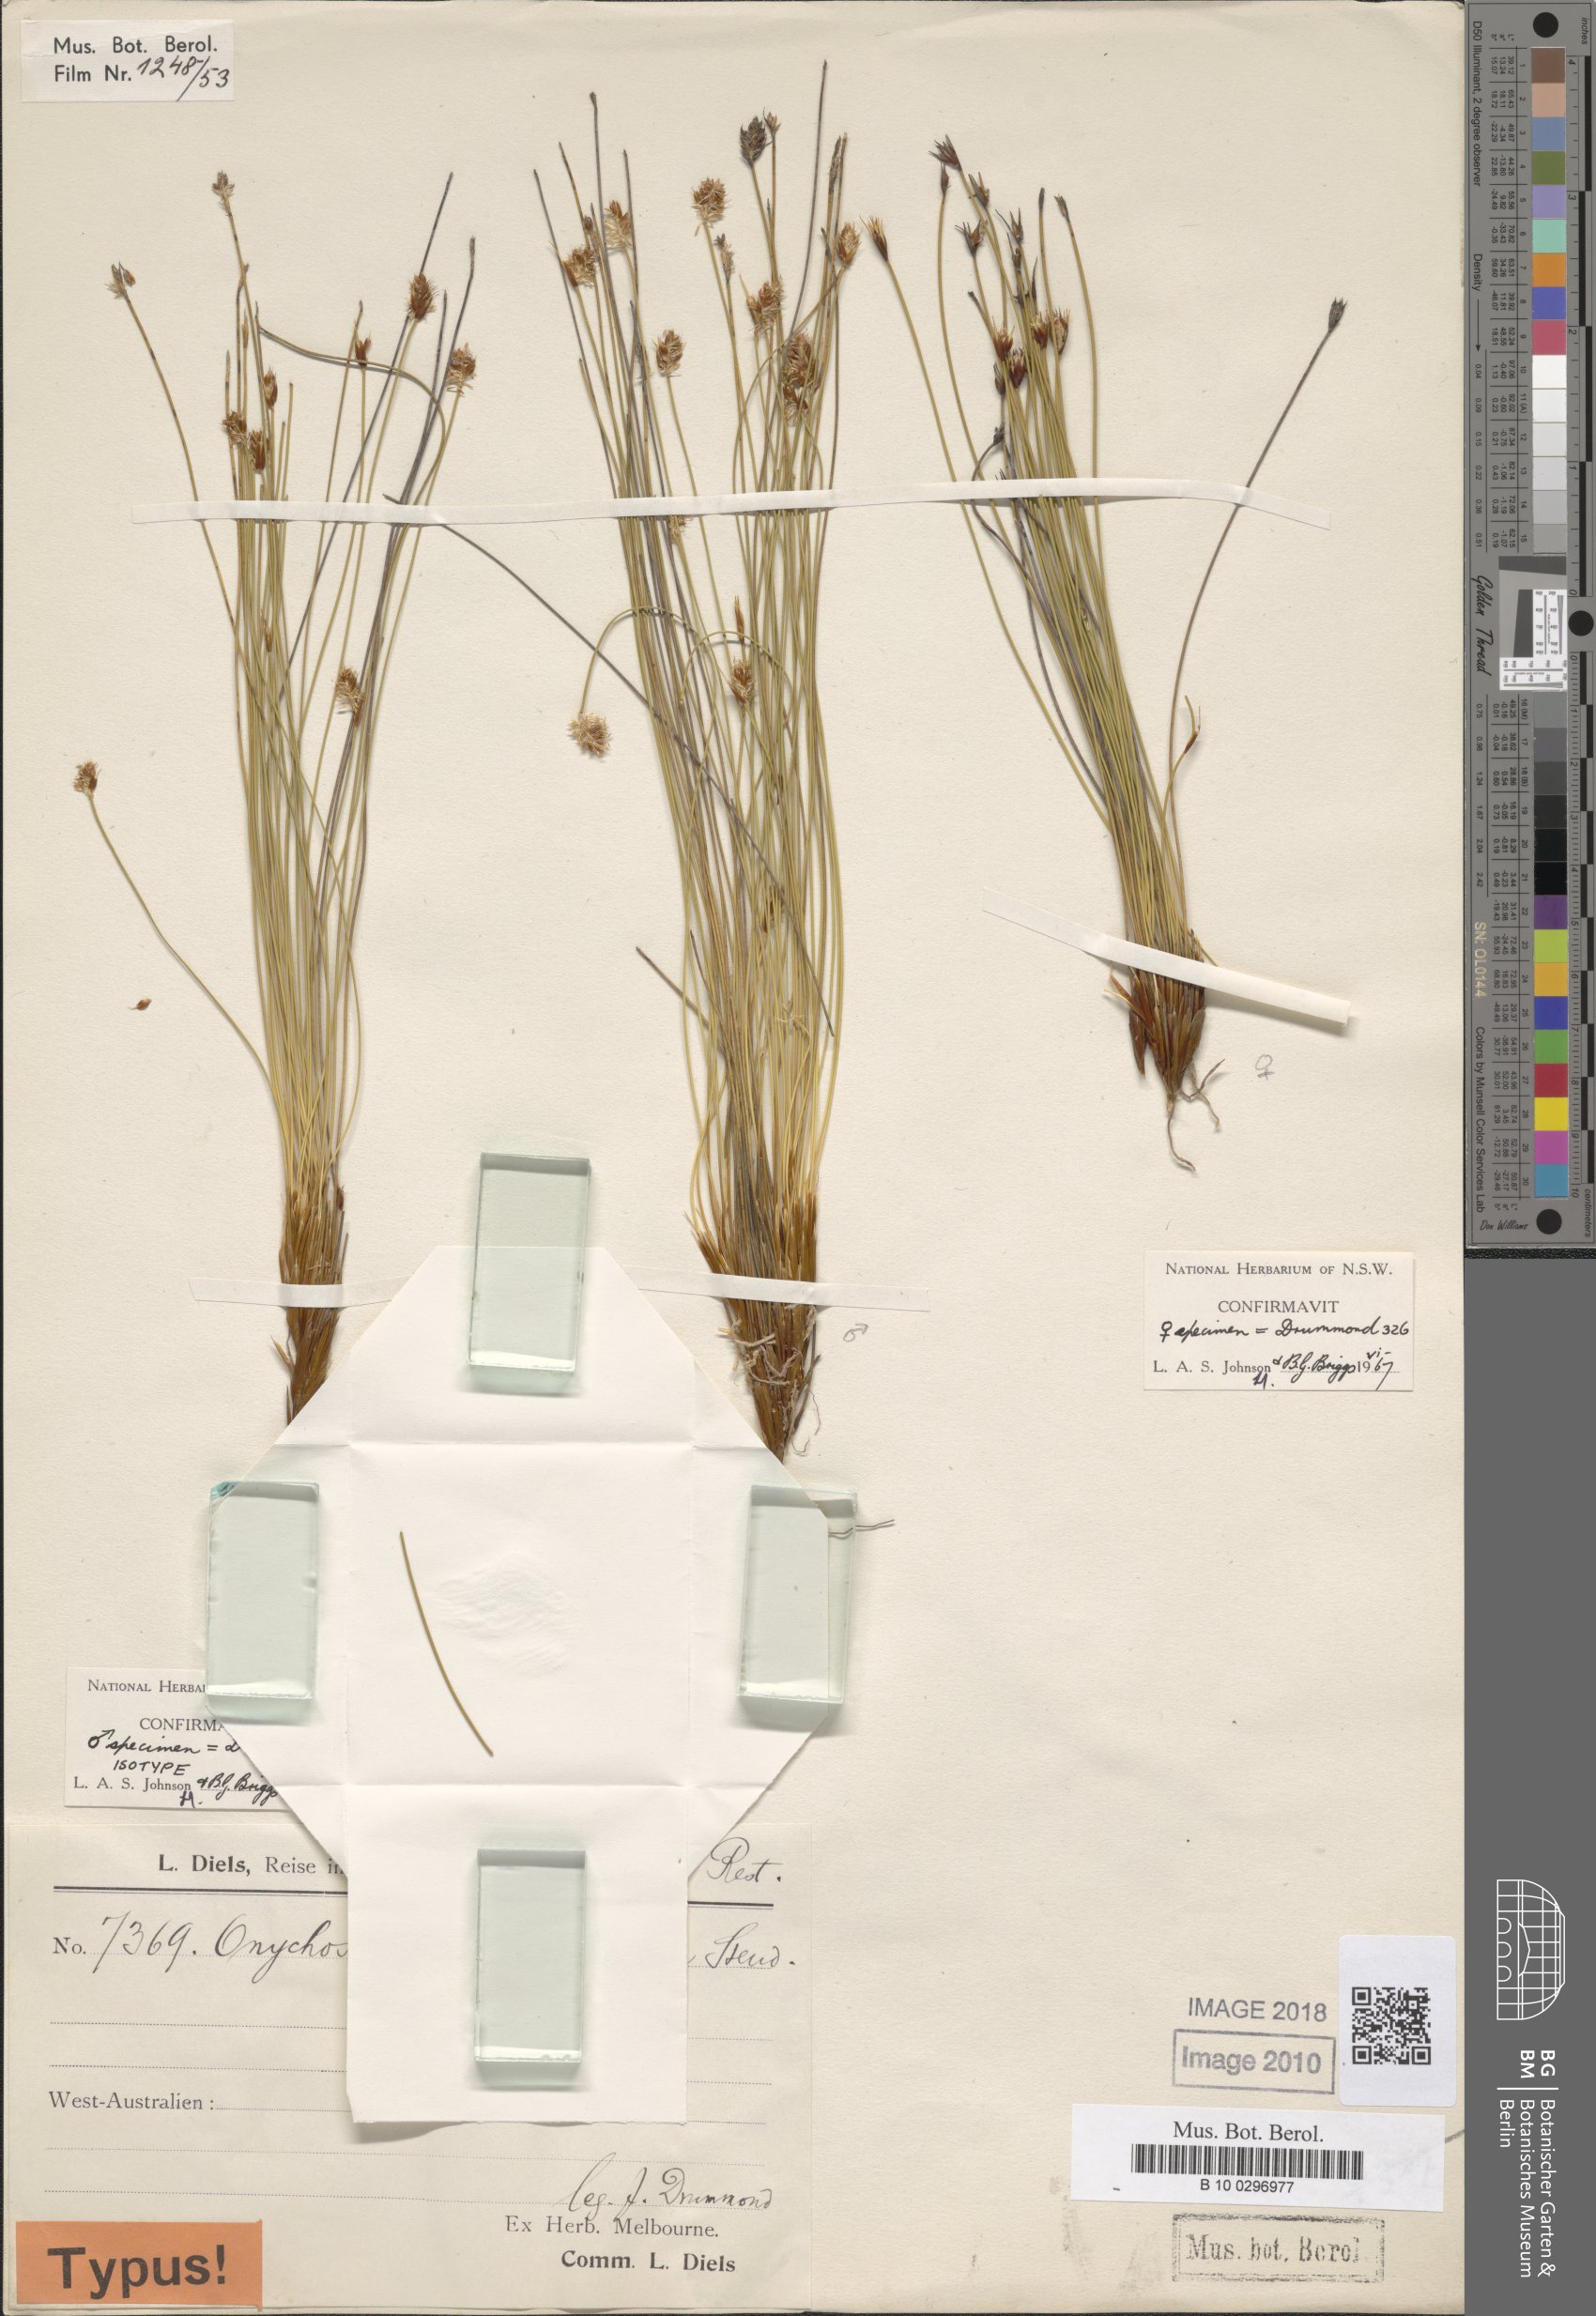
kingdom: Plantae
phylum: Tracheophyta
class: Liliopsida
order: Poales
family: Restionaceae
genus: Desmocladus
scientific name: Desmocladus laxiflorus
